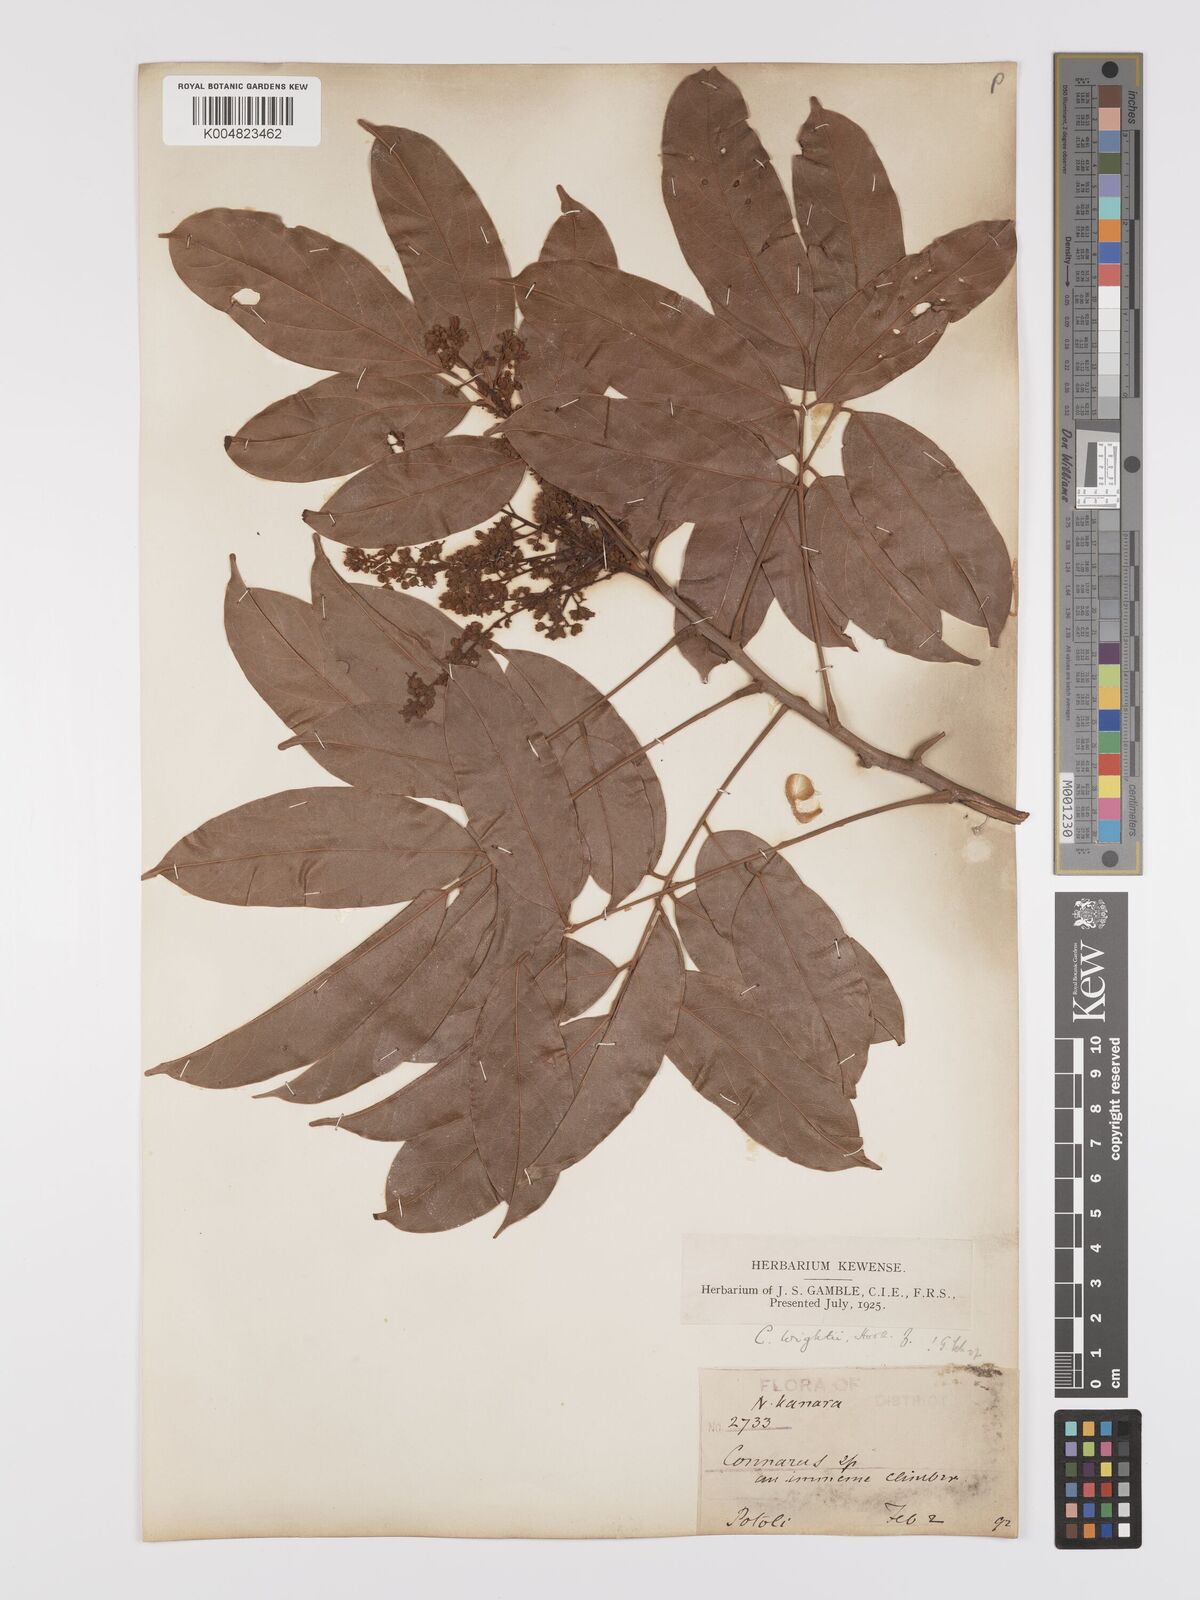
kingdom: Plantae
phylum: Tracheophyta
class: Magnoliopsida
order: Oxalidales
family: Connaraceae
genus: Connarus
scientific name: Connarus wightii
